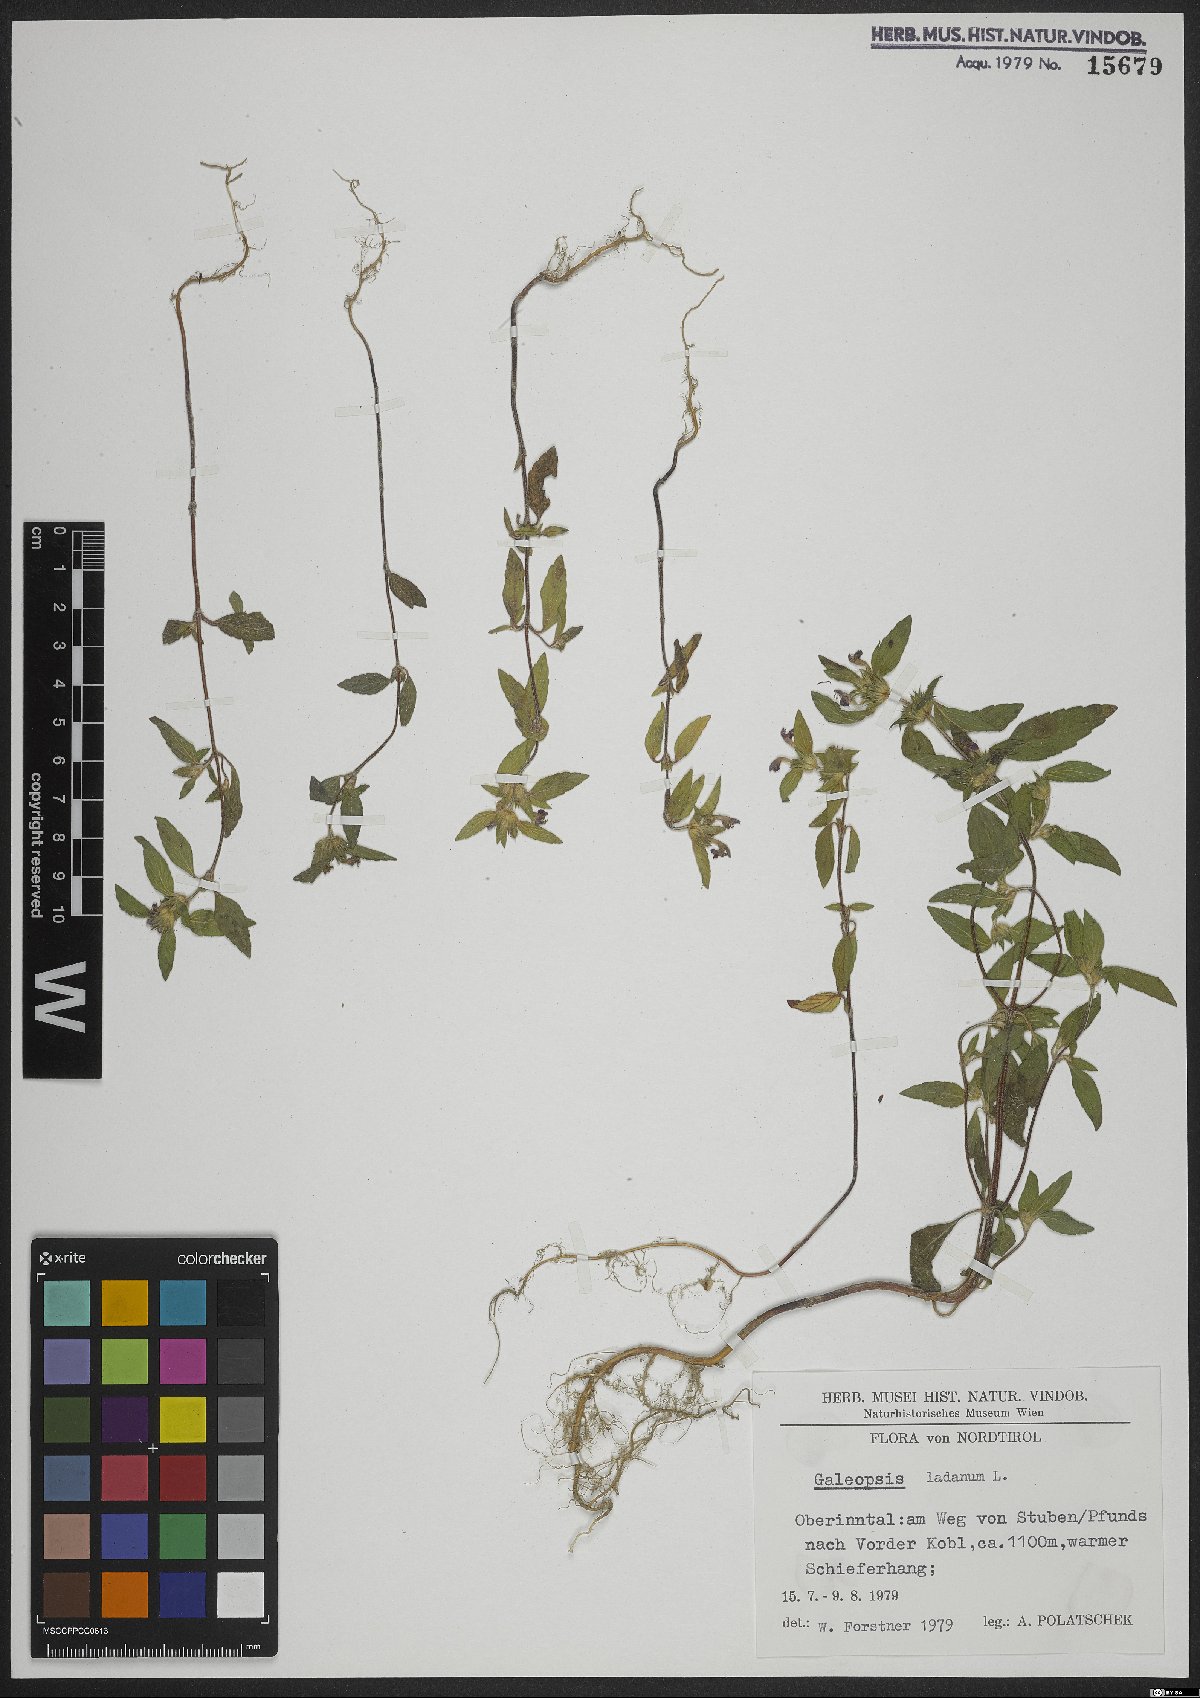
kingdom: Plantae
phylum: Tracheophyta
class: Magnoliopsida
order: Lamiales
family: Lamiaceae
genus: Galeopsis
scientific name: Galeopsis ladanum
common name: Broad-leaved hemp-nettle
